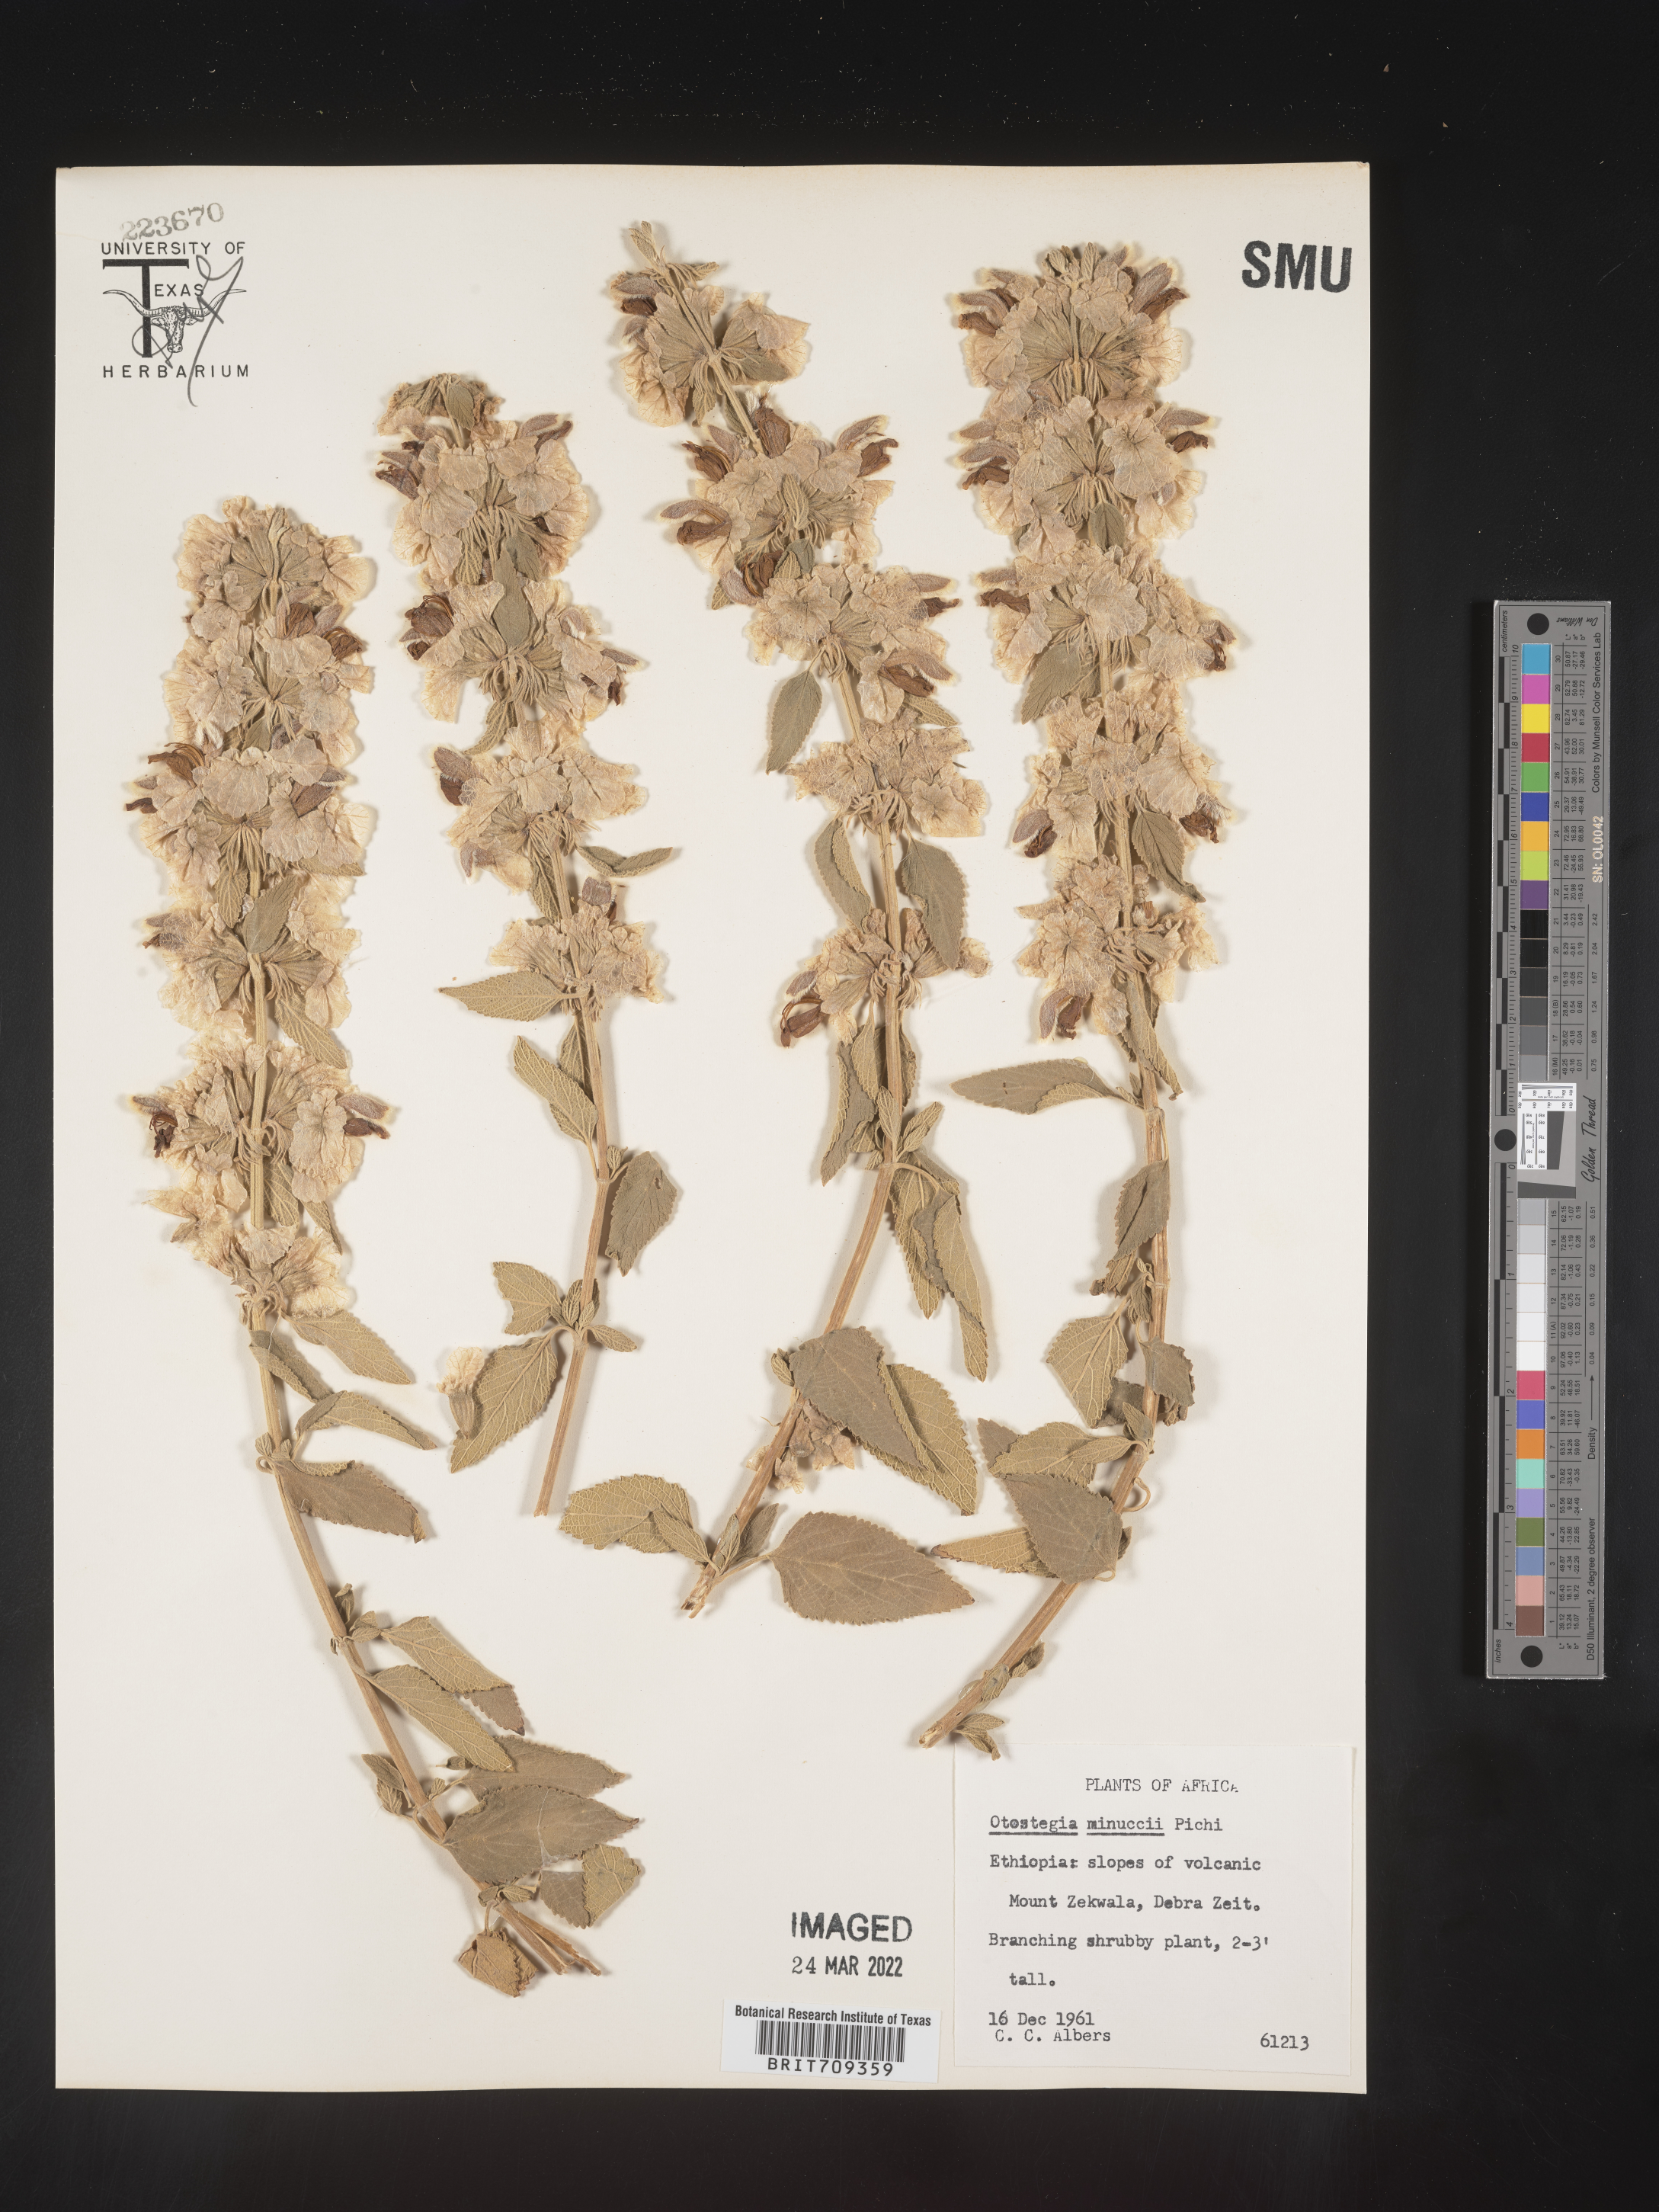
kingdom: Plantae
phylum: Tracheophyta
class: Magnoliopsida
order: Lamiales
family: Lamiaceae
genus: Otostegia
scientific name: Otostegia
